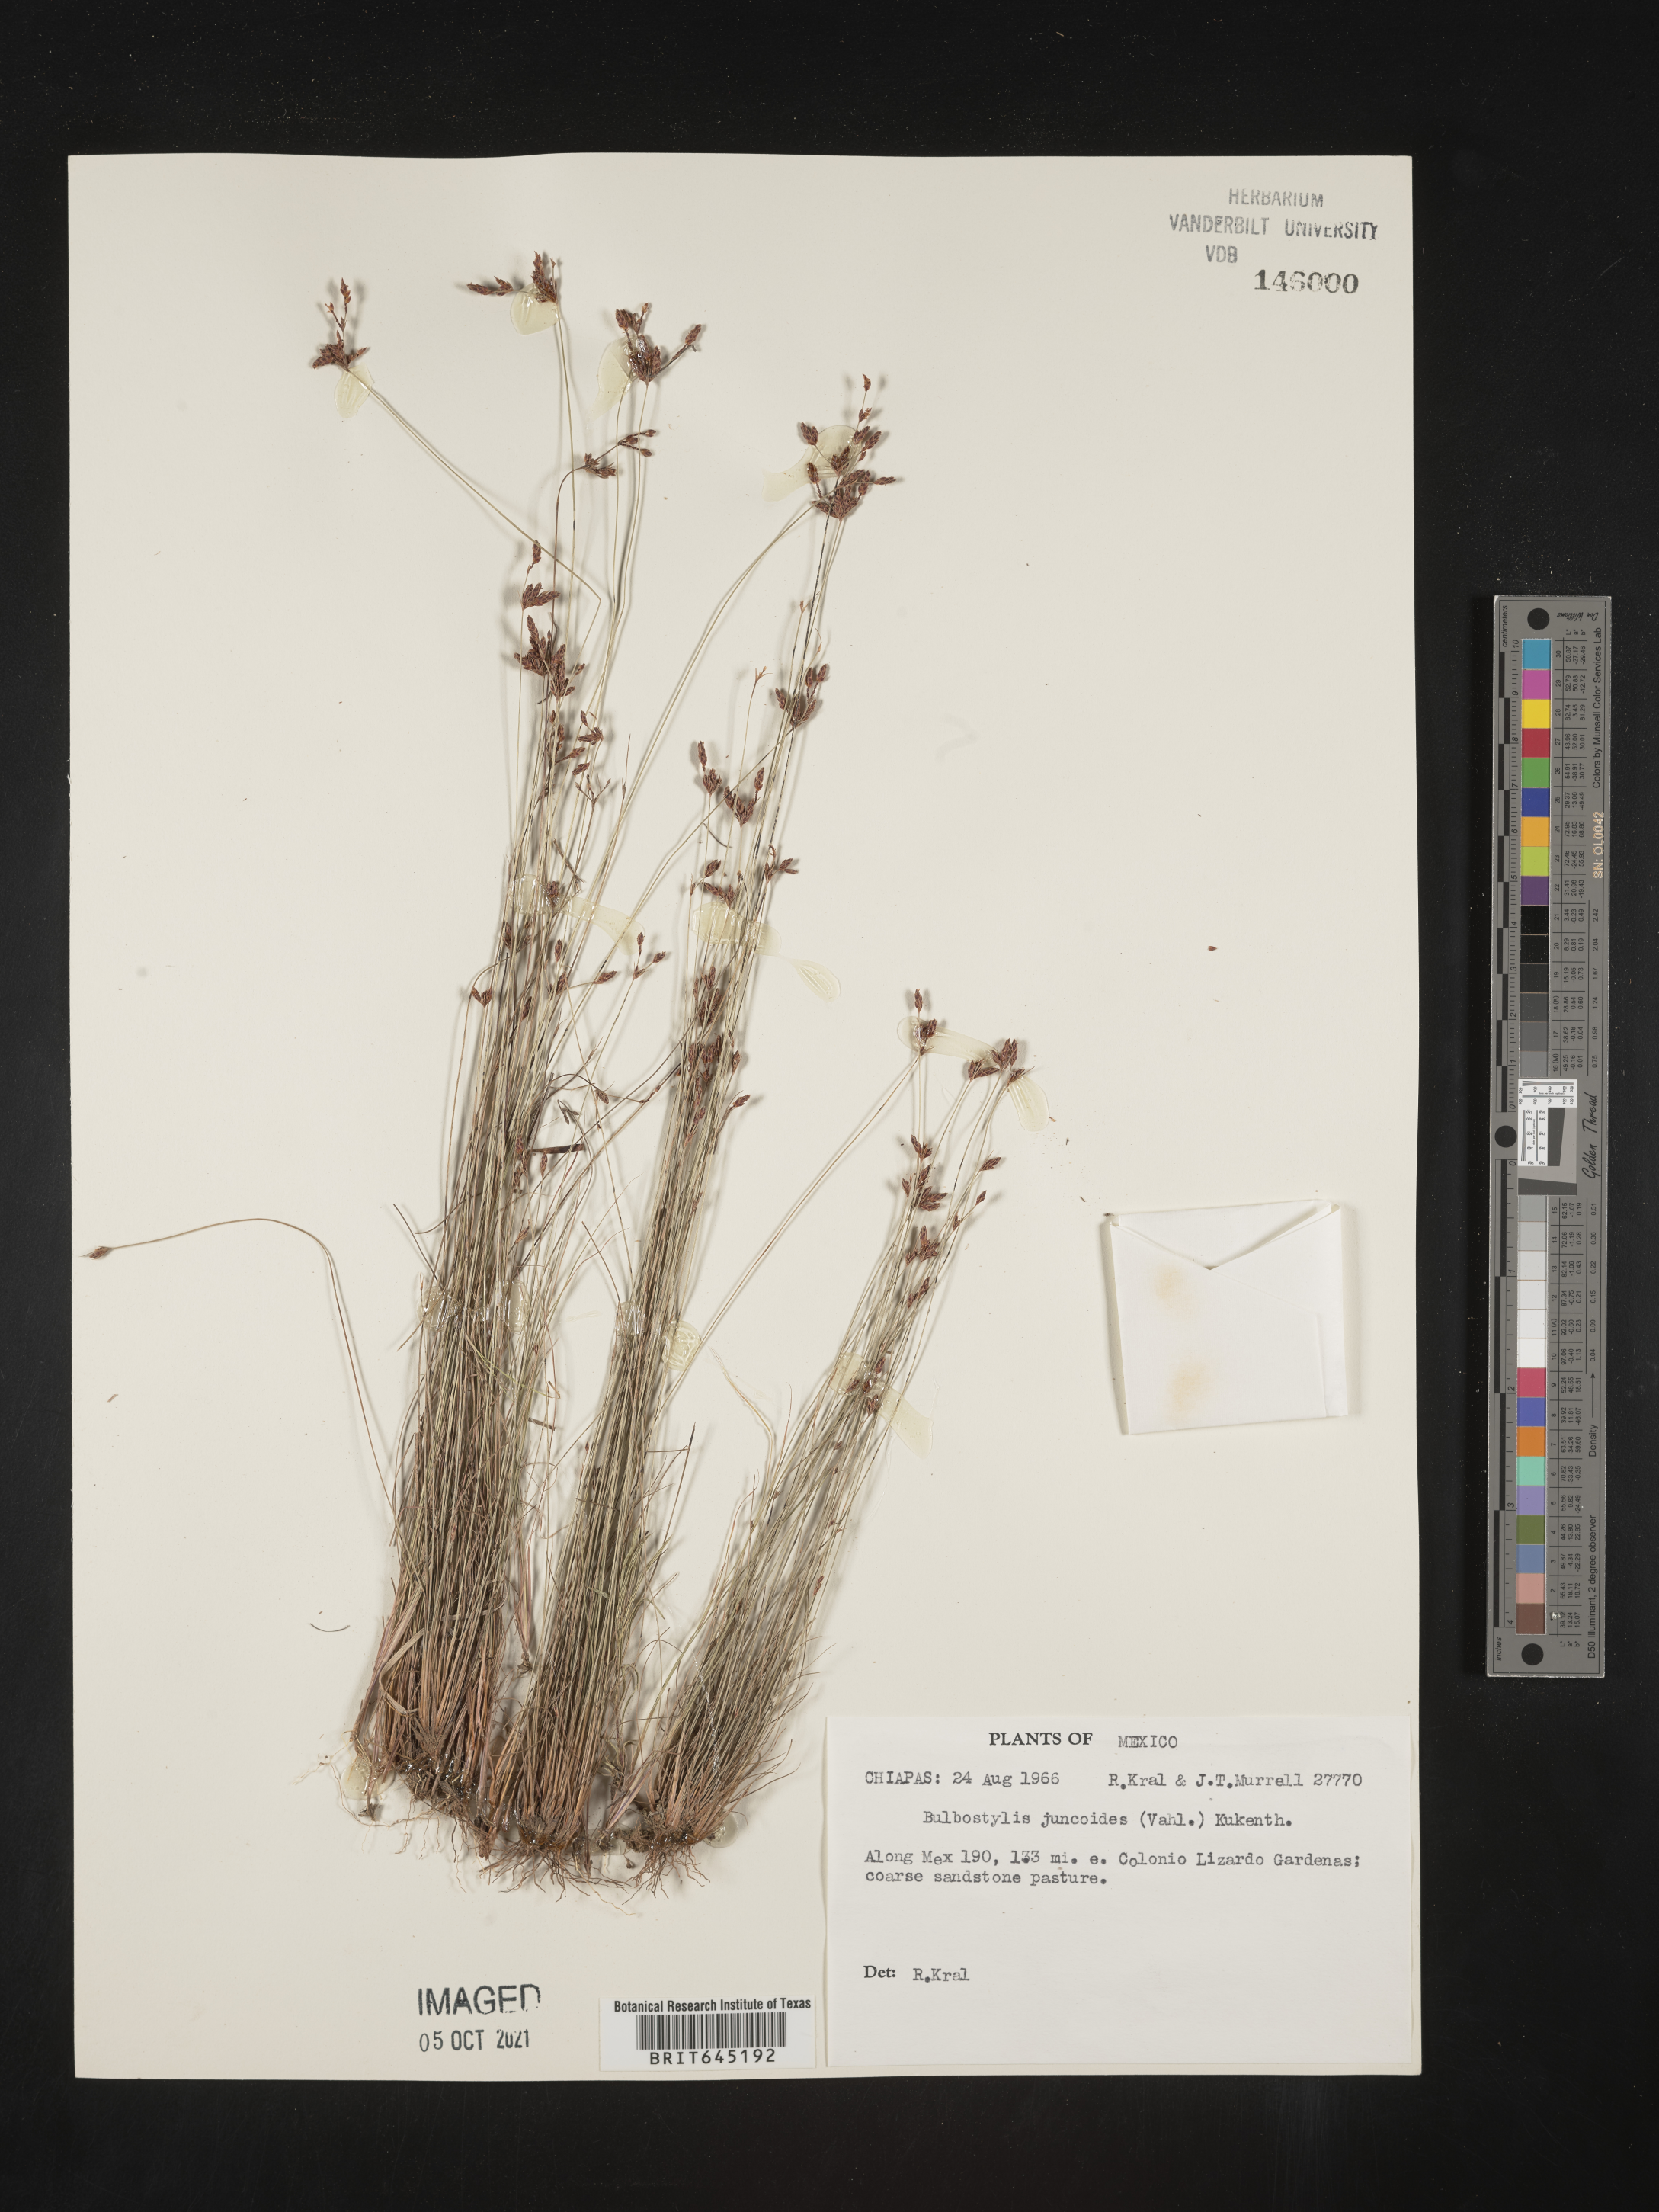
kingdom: Plantae
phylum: Tracheophyta
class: Liliopsida
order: Poales
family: Cyperaceae
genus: Bulbostylis
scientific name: Bulbostylis juncoides
